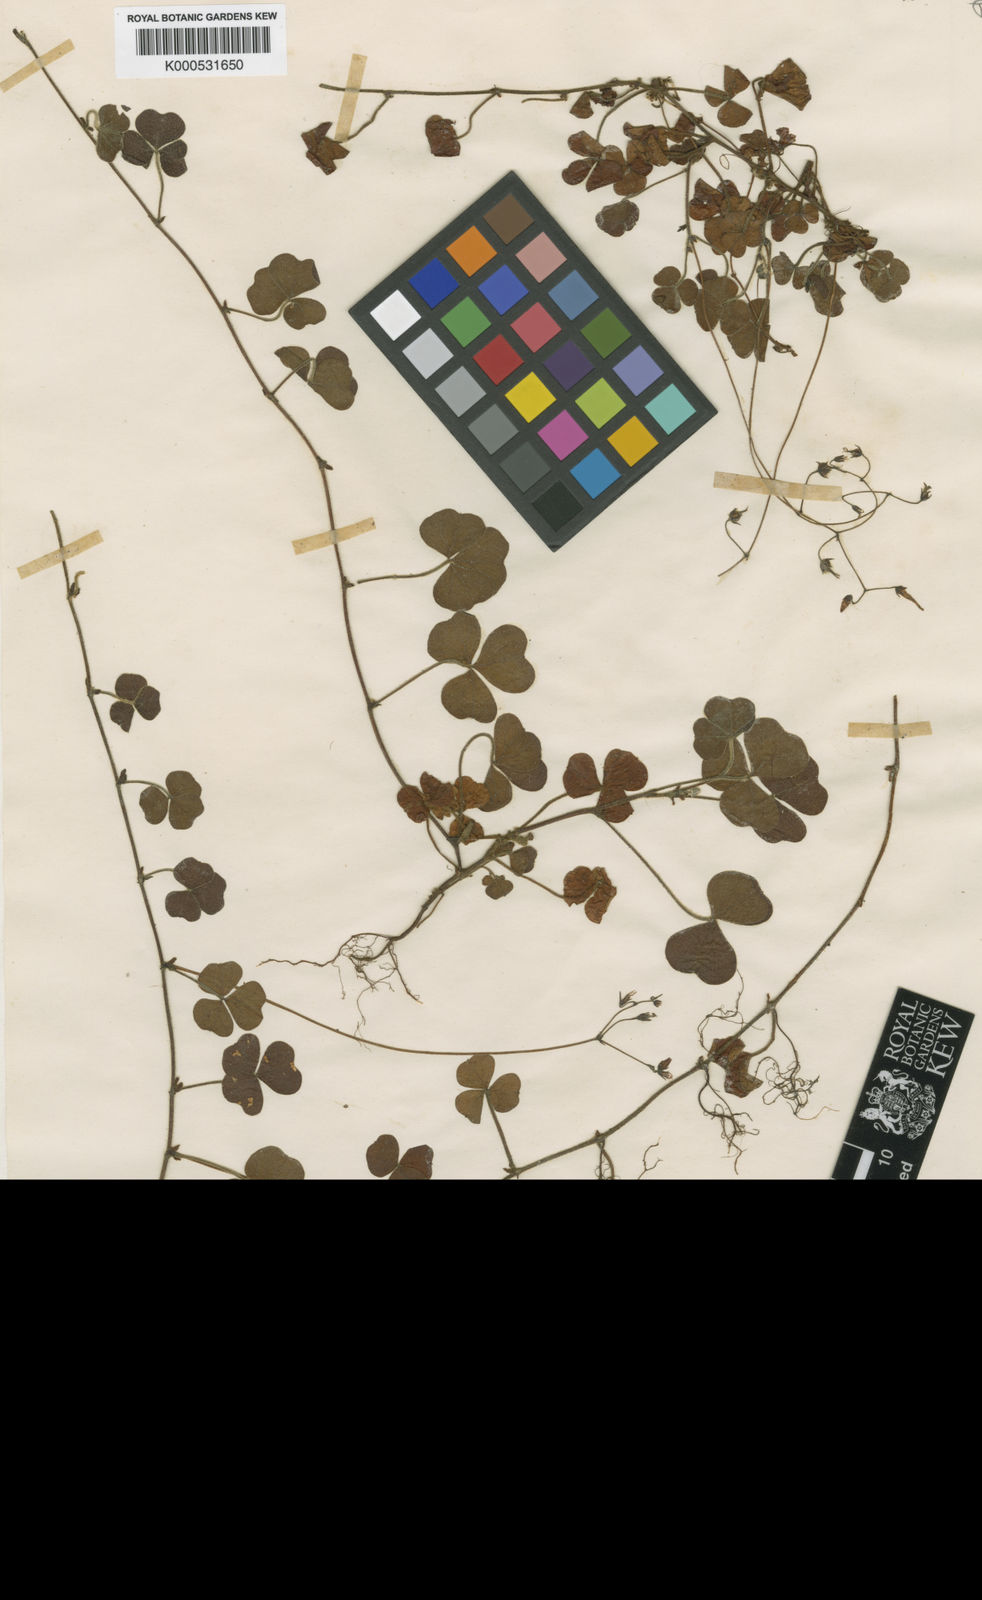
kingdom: Plantae
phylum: Tracheophyta
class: Magnoliopsida
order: Oxalidales
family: Oxalidaceae
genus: Oxalis
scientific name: Oxalis
